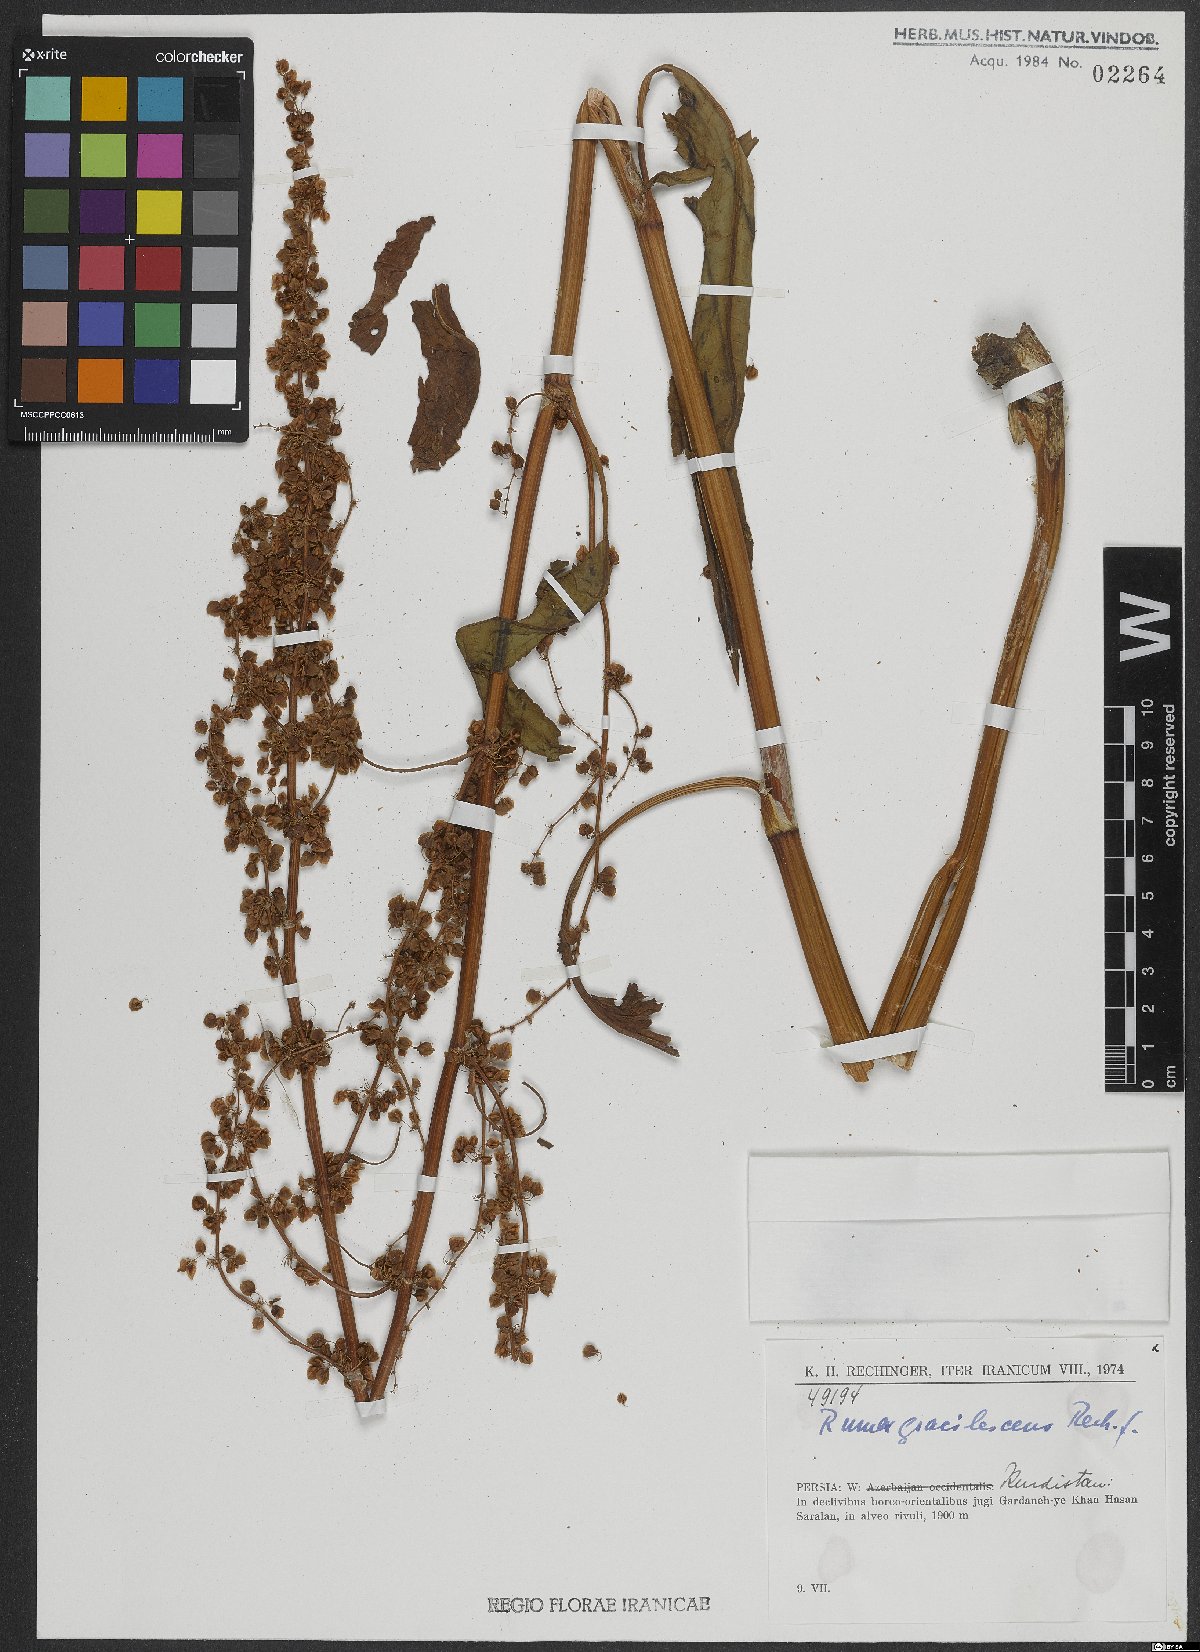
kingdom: Plantae
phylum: Tracheophyta
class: Magnoliopsida
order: Caryophyllales
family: Polygonaceae
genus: Rumex
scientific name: Rumex gracilescens
